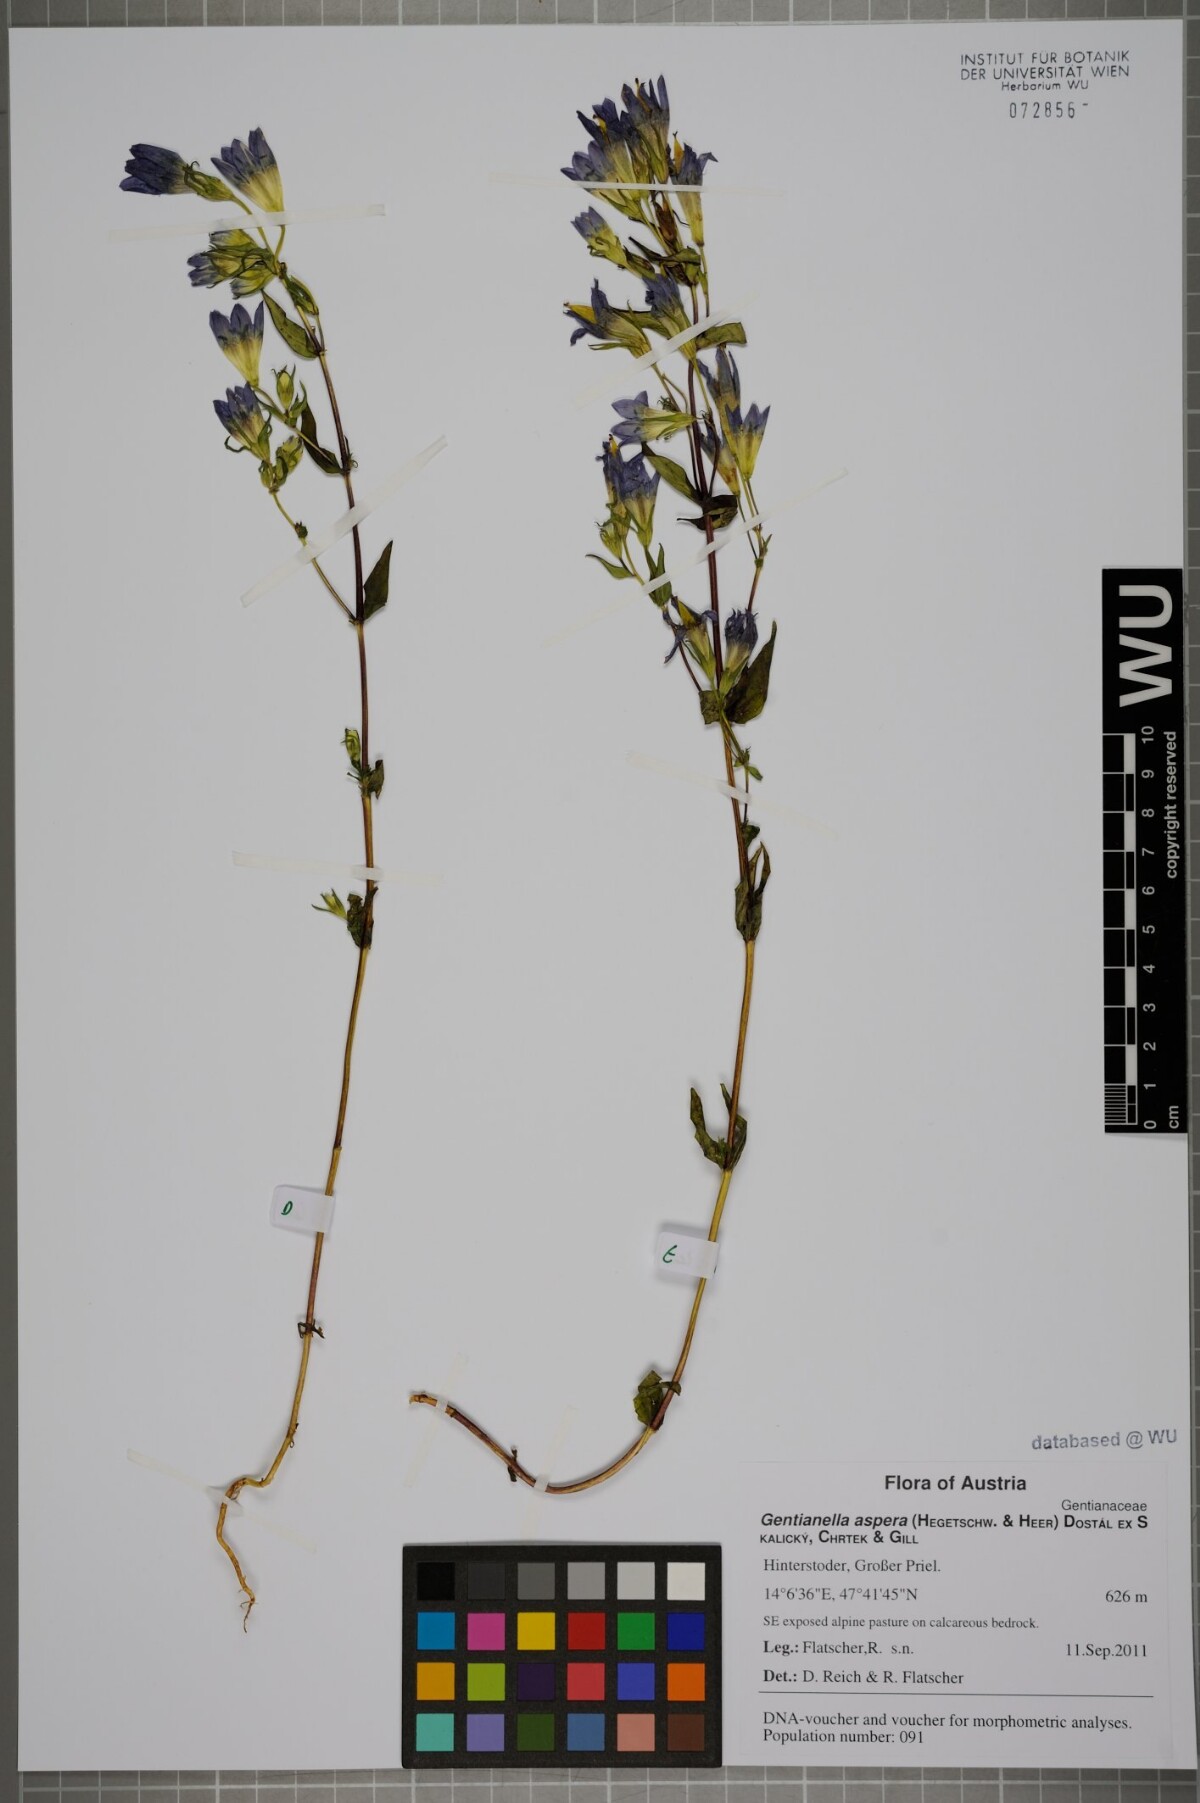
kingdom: Plantae
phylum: Tracheophyta
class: Magnoliopsida
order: Gentianales
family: Gentianaceae
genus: Gentianella
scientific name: Gentianella obtusifolia
